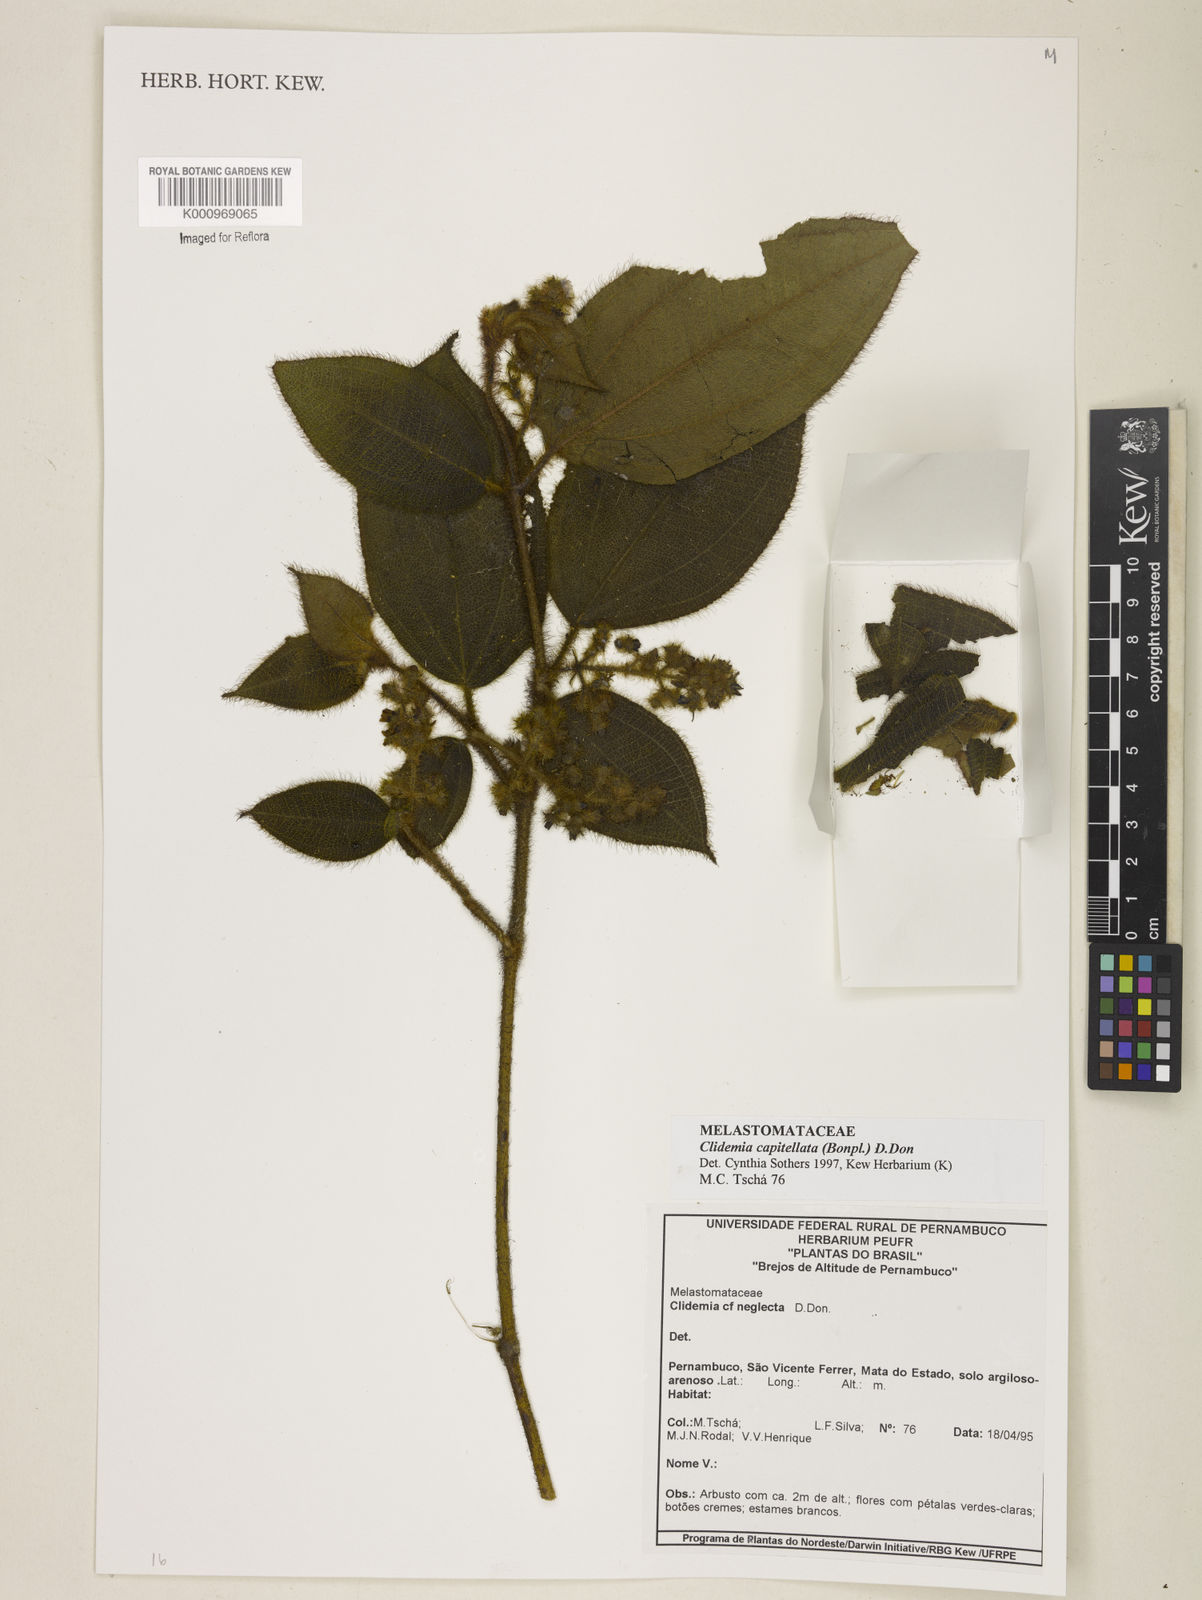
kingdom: Plantae
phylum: Tracheophyta
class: Magnoliopsida
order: Myrtales
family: Melastomataceae
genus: Miconia
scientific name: Miconia dependens
